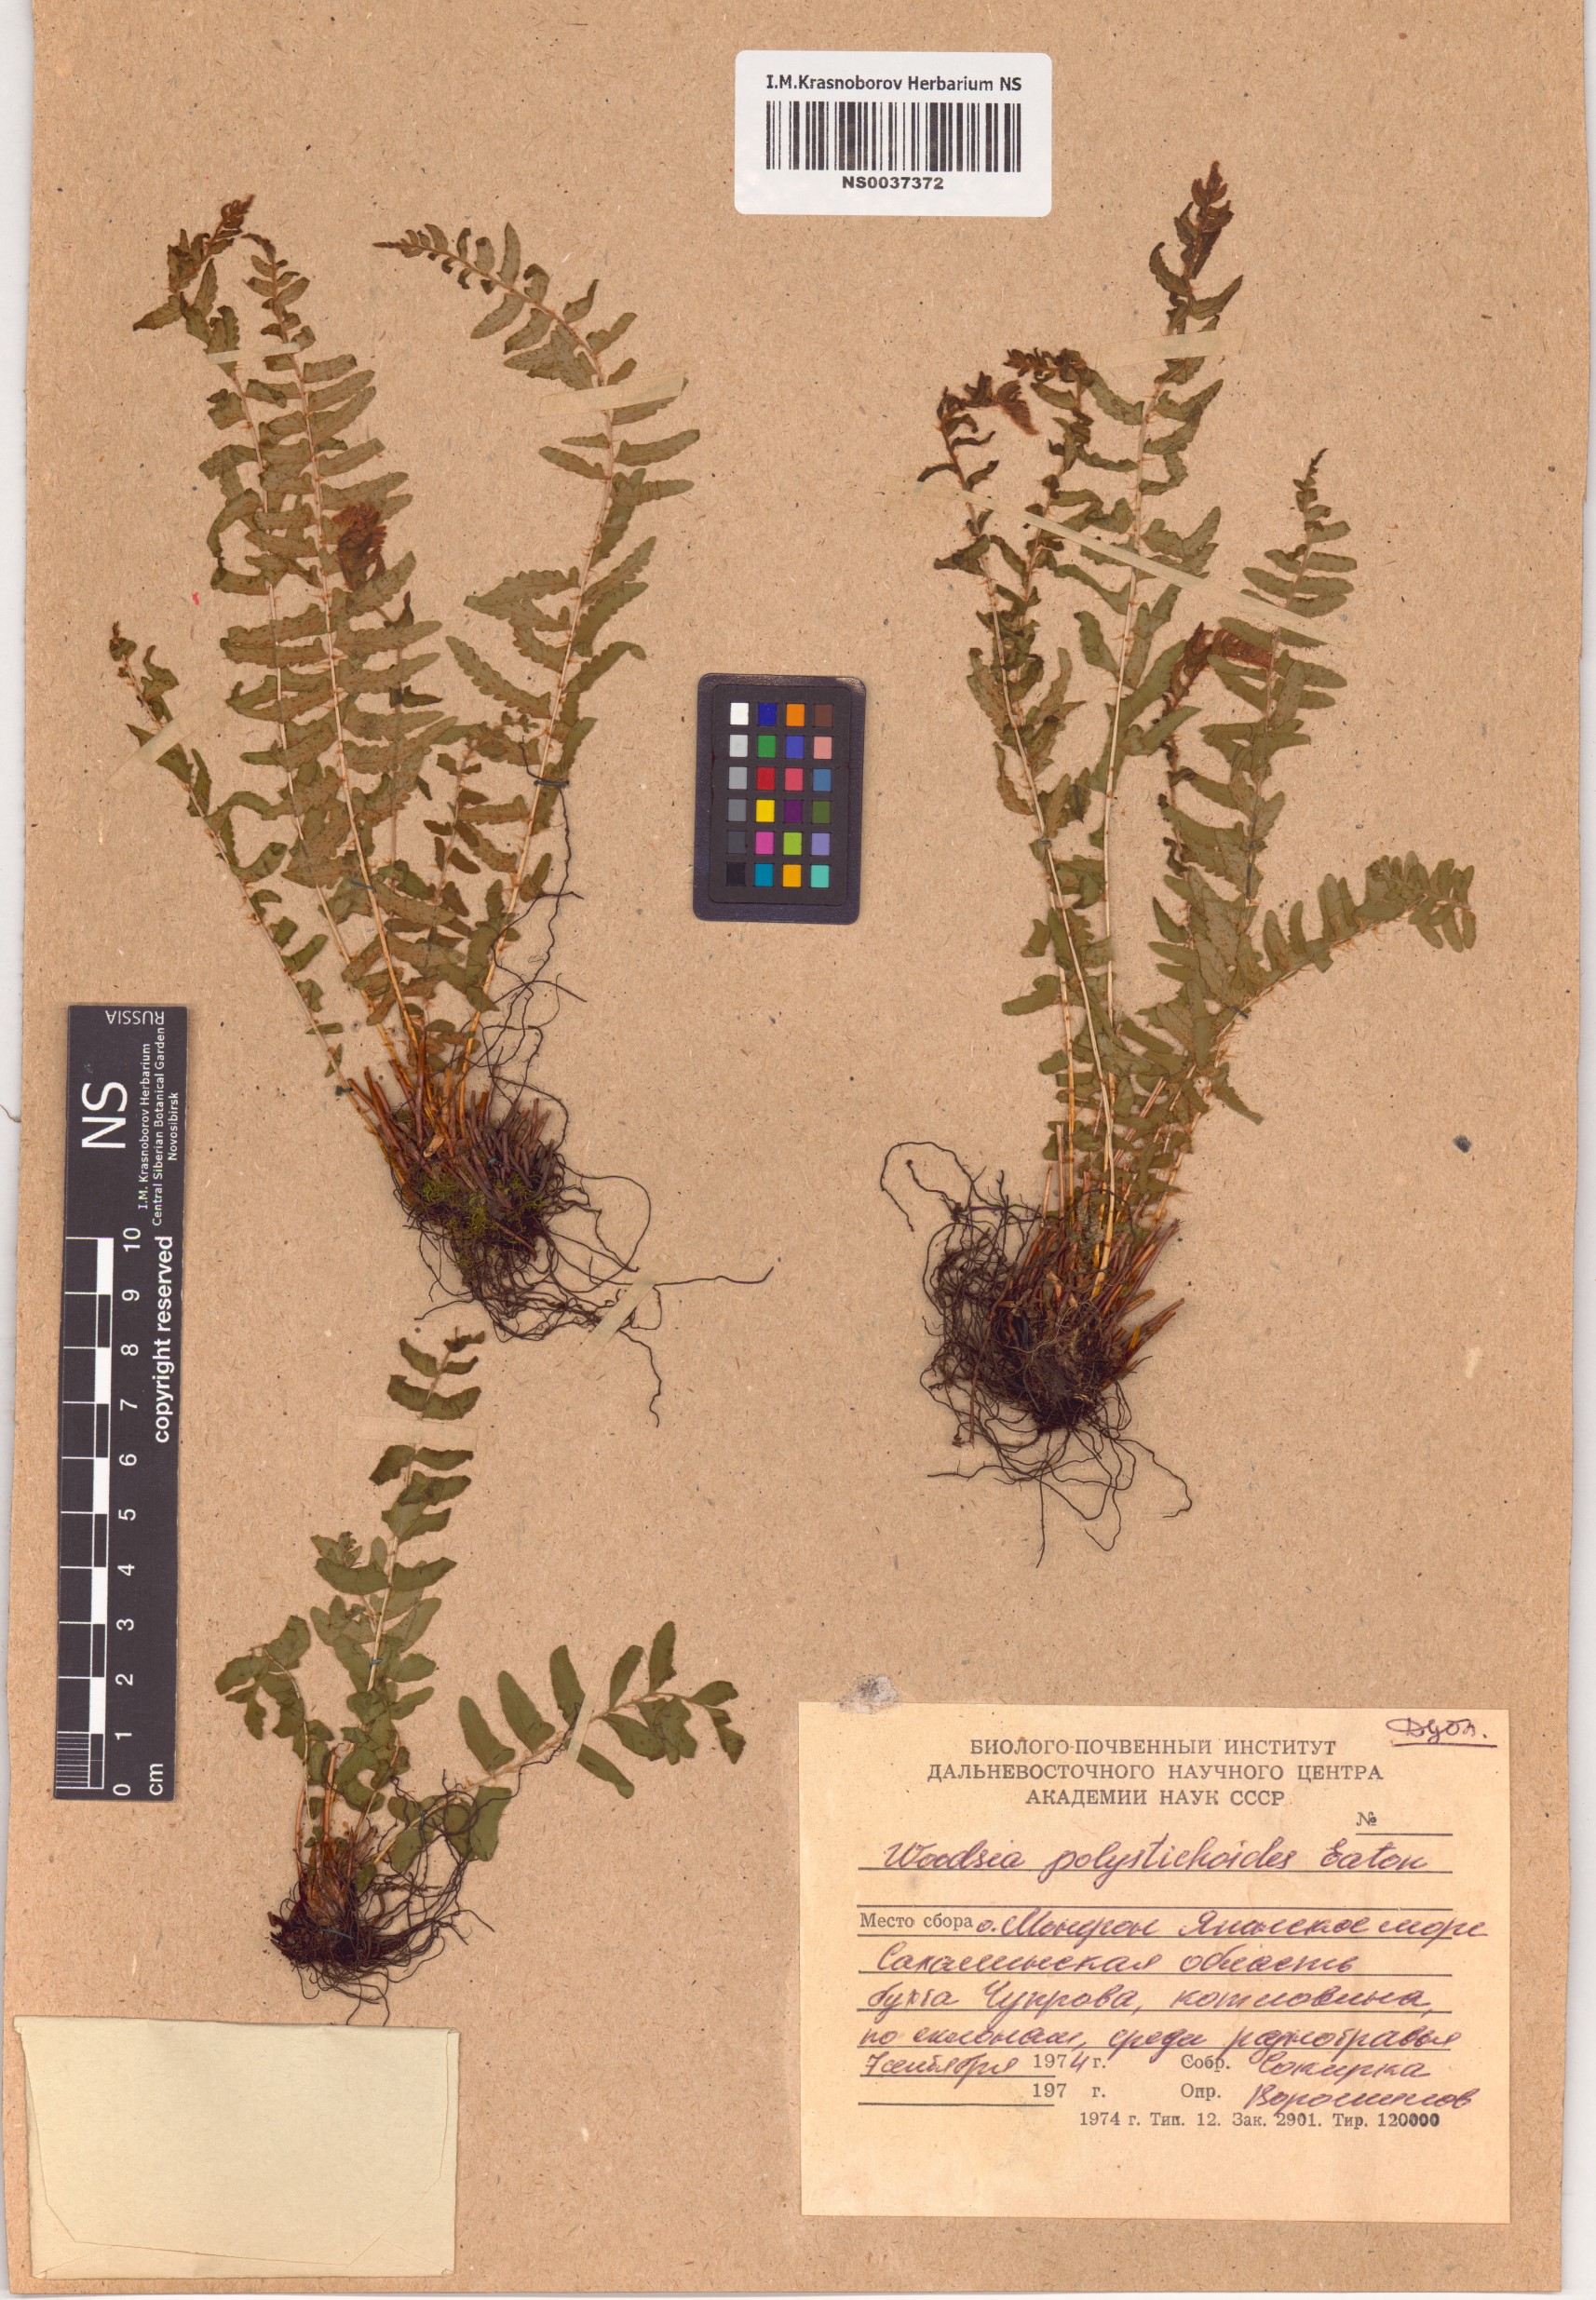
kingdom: Plantae
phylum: Tracheophyta
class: Polypodiopsida
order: Polypodiales
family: Woodsiaceae
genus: Woodsia
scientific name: Woodsia polystichoides
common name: Holly fern woodsia
